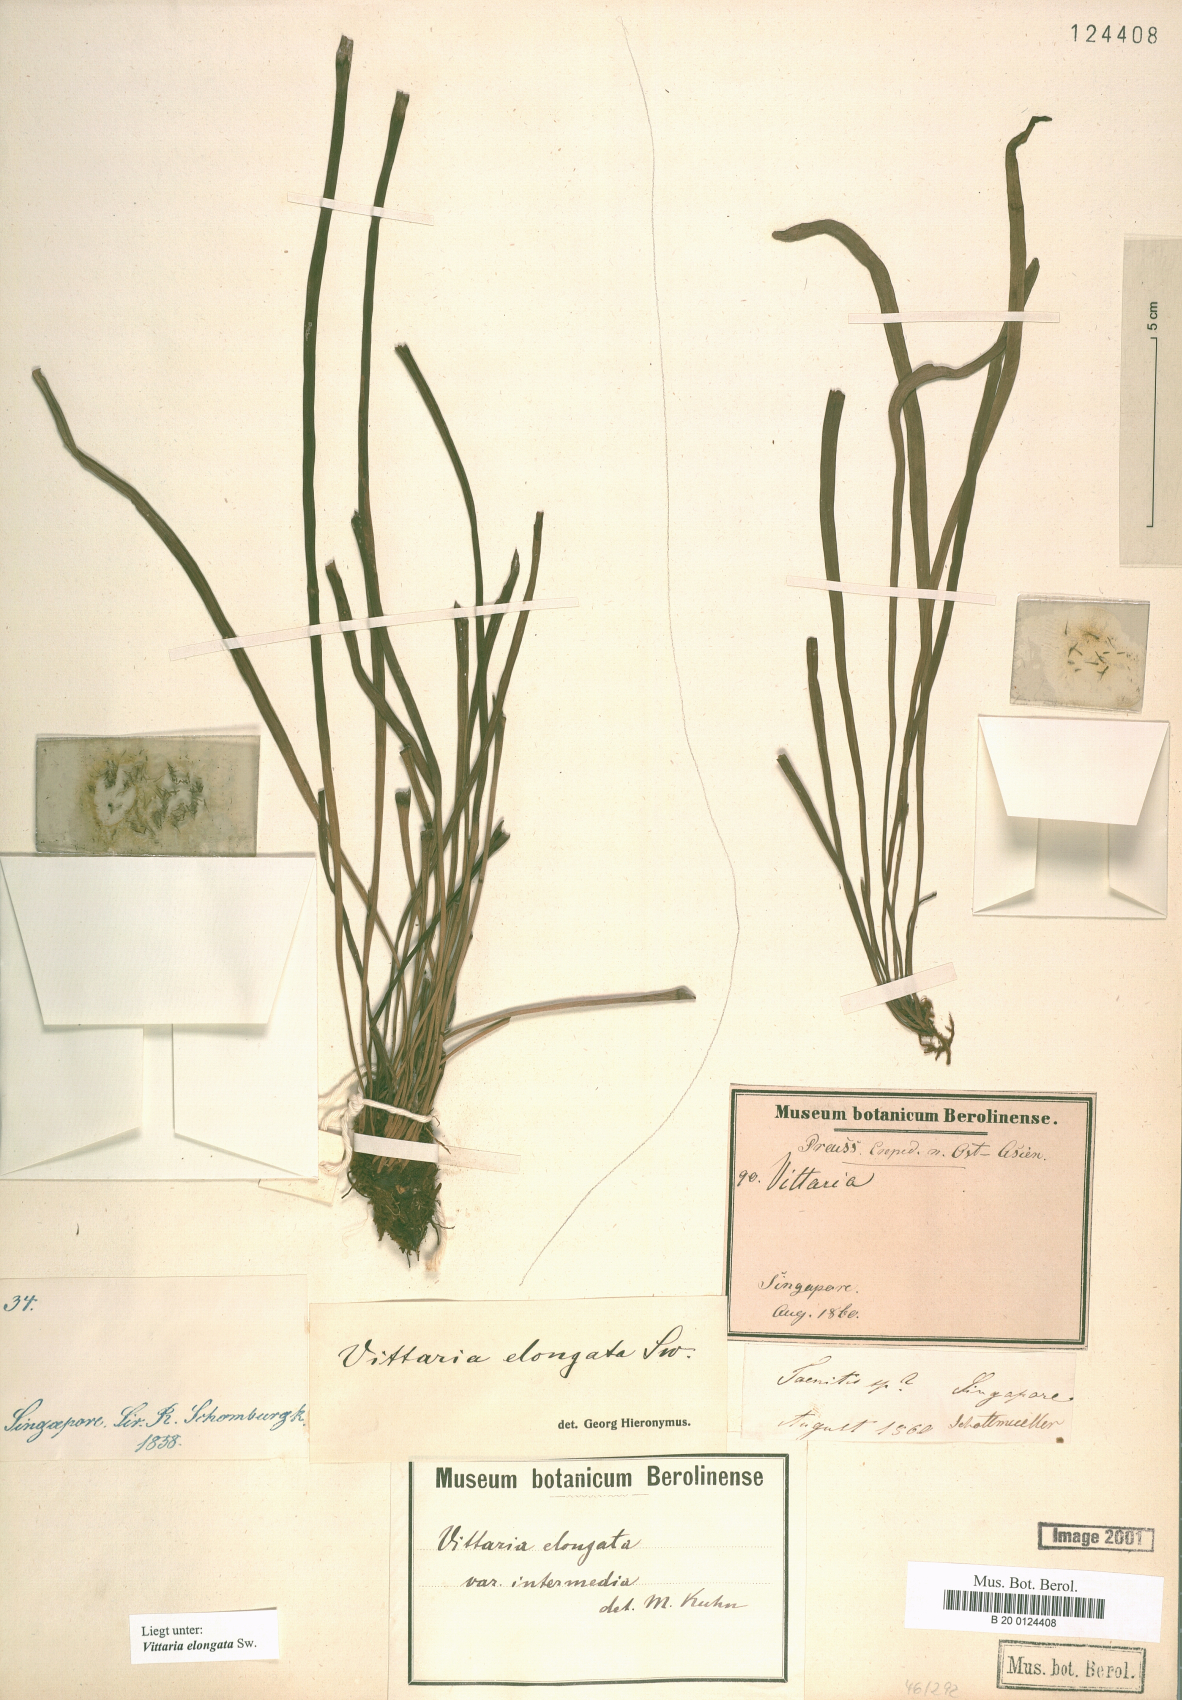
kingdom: Plantae
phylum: Tracheophyta
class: Polypodiopsida
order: Polypodiales
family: Pteridaceae
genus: Haplopteris
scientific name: Haplopteris elongata
